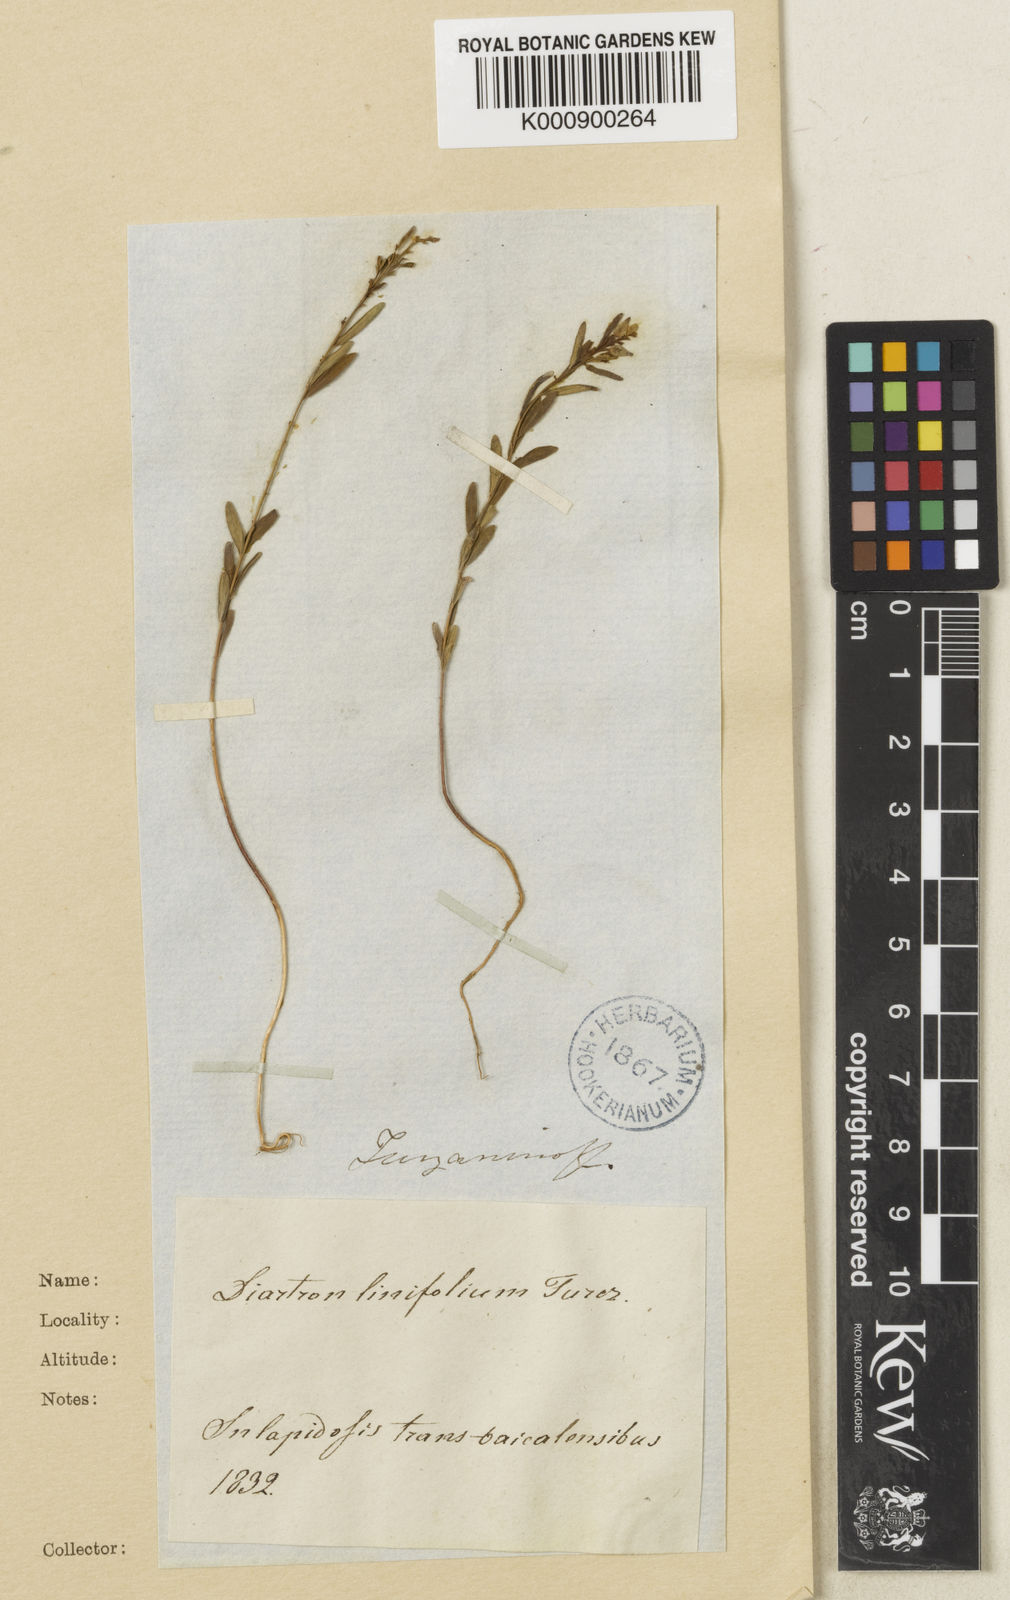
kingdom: Plantae
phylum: Tracheophyta
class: Magnoliopsida
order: Malvales
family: Thymelaeaceae
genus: Diarthron
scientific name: Diarthron
